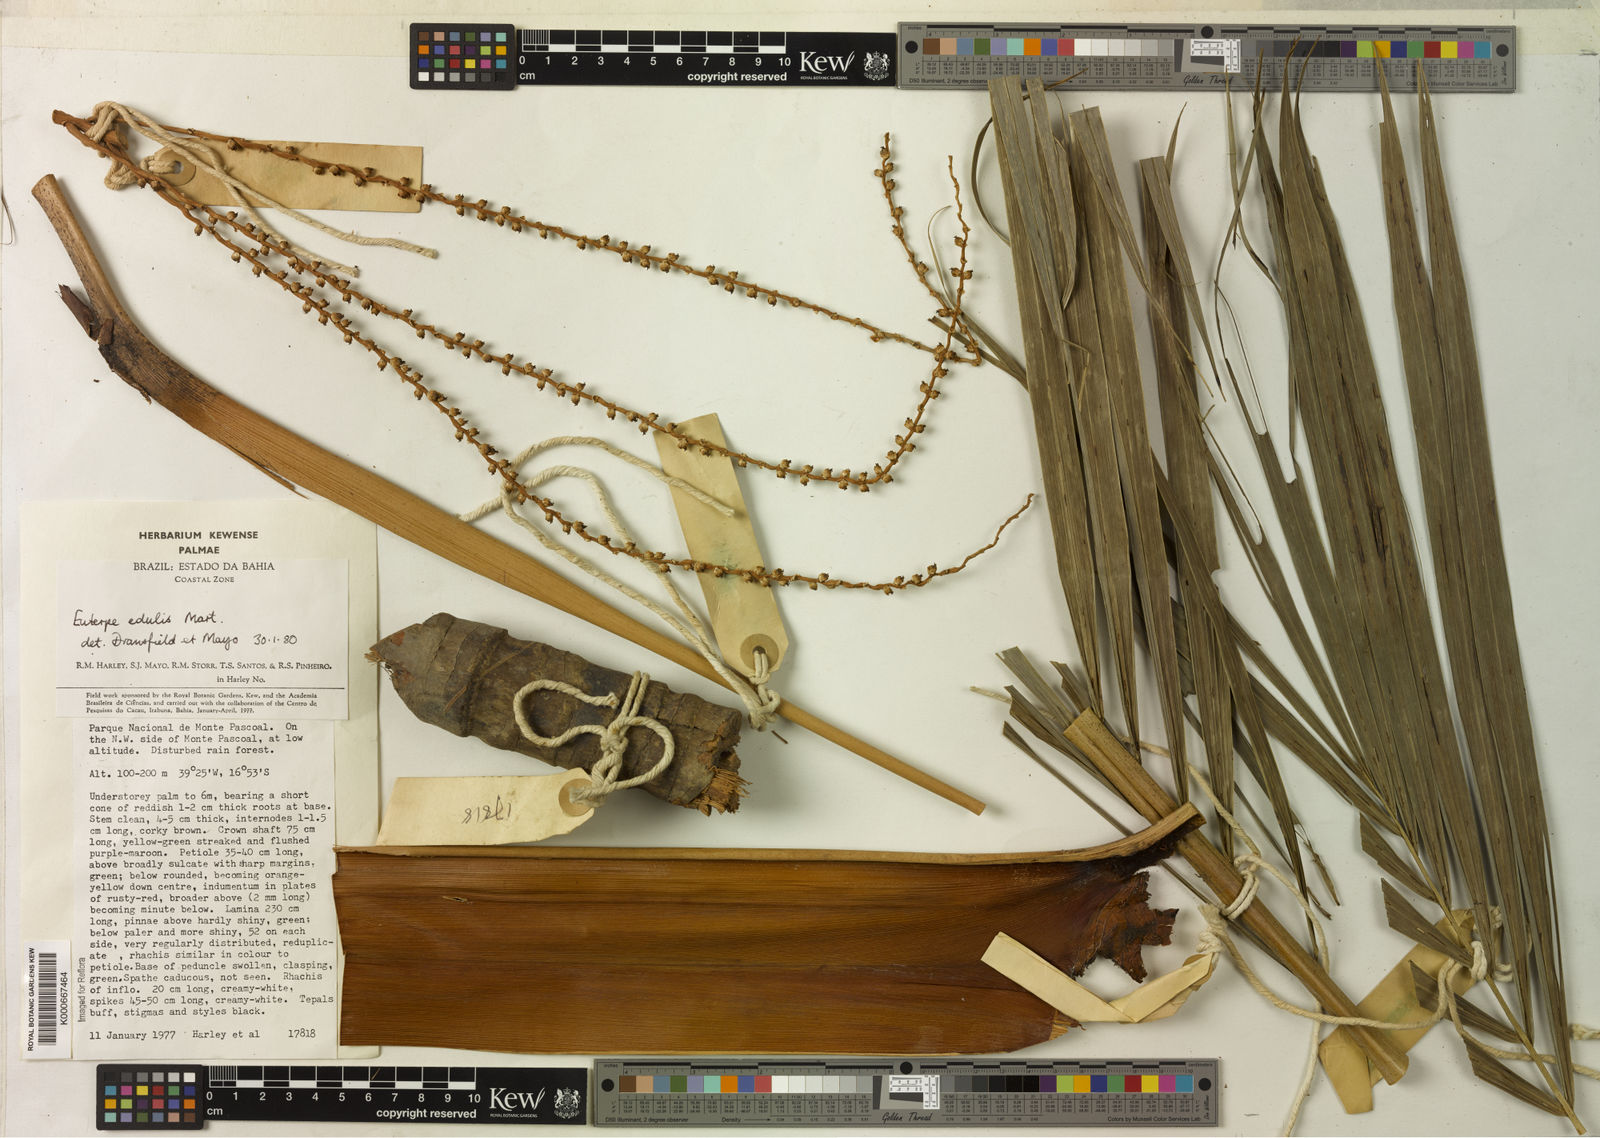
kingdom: Plantae
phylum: Tracheophyta
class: Liliopsida
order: Arecales
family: Arecaceae
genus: Euterpe
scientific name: Euterpe edulis
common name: Assai palm
